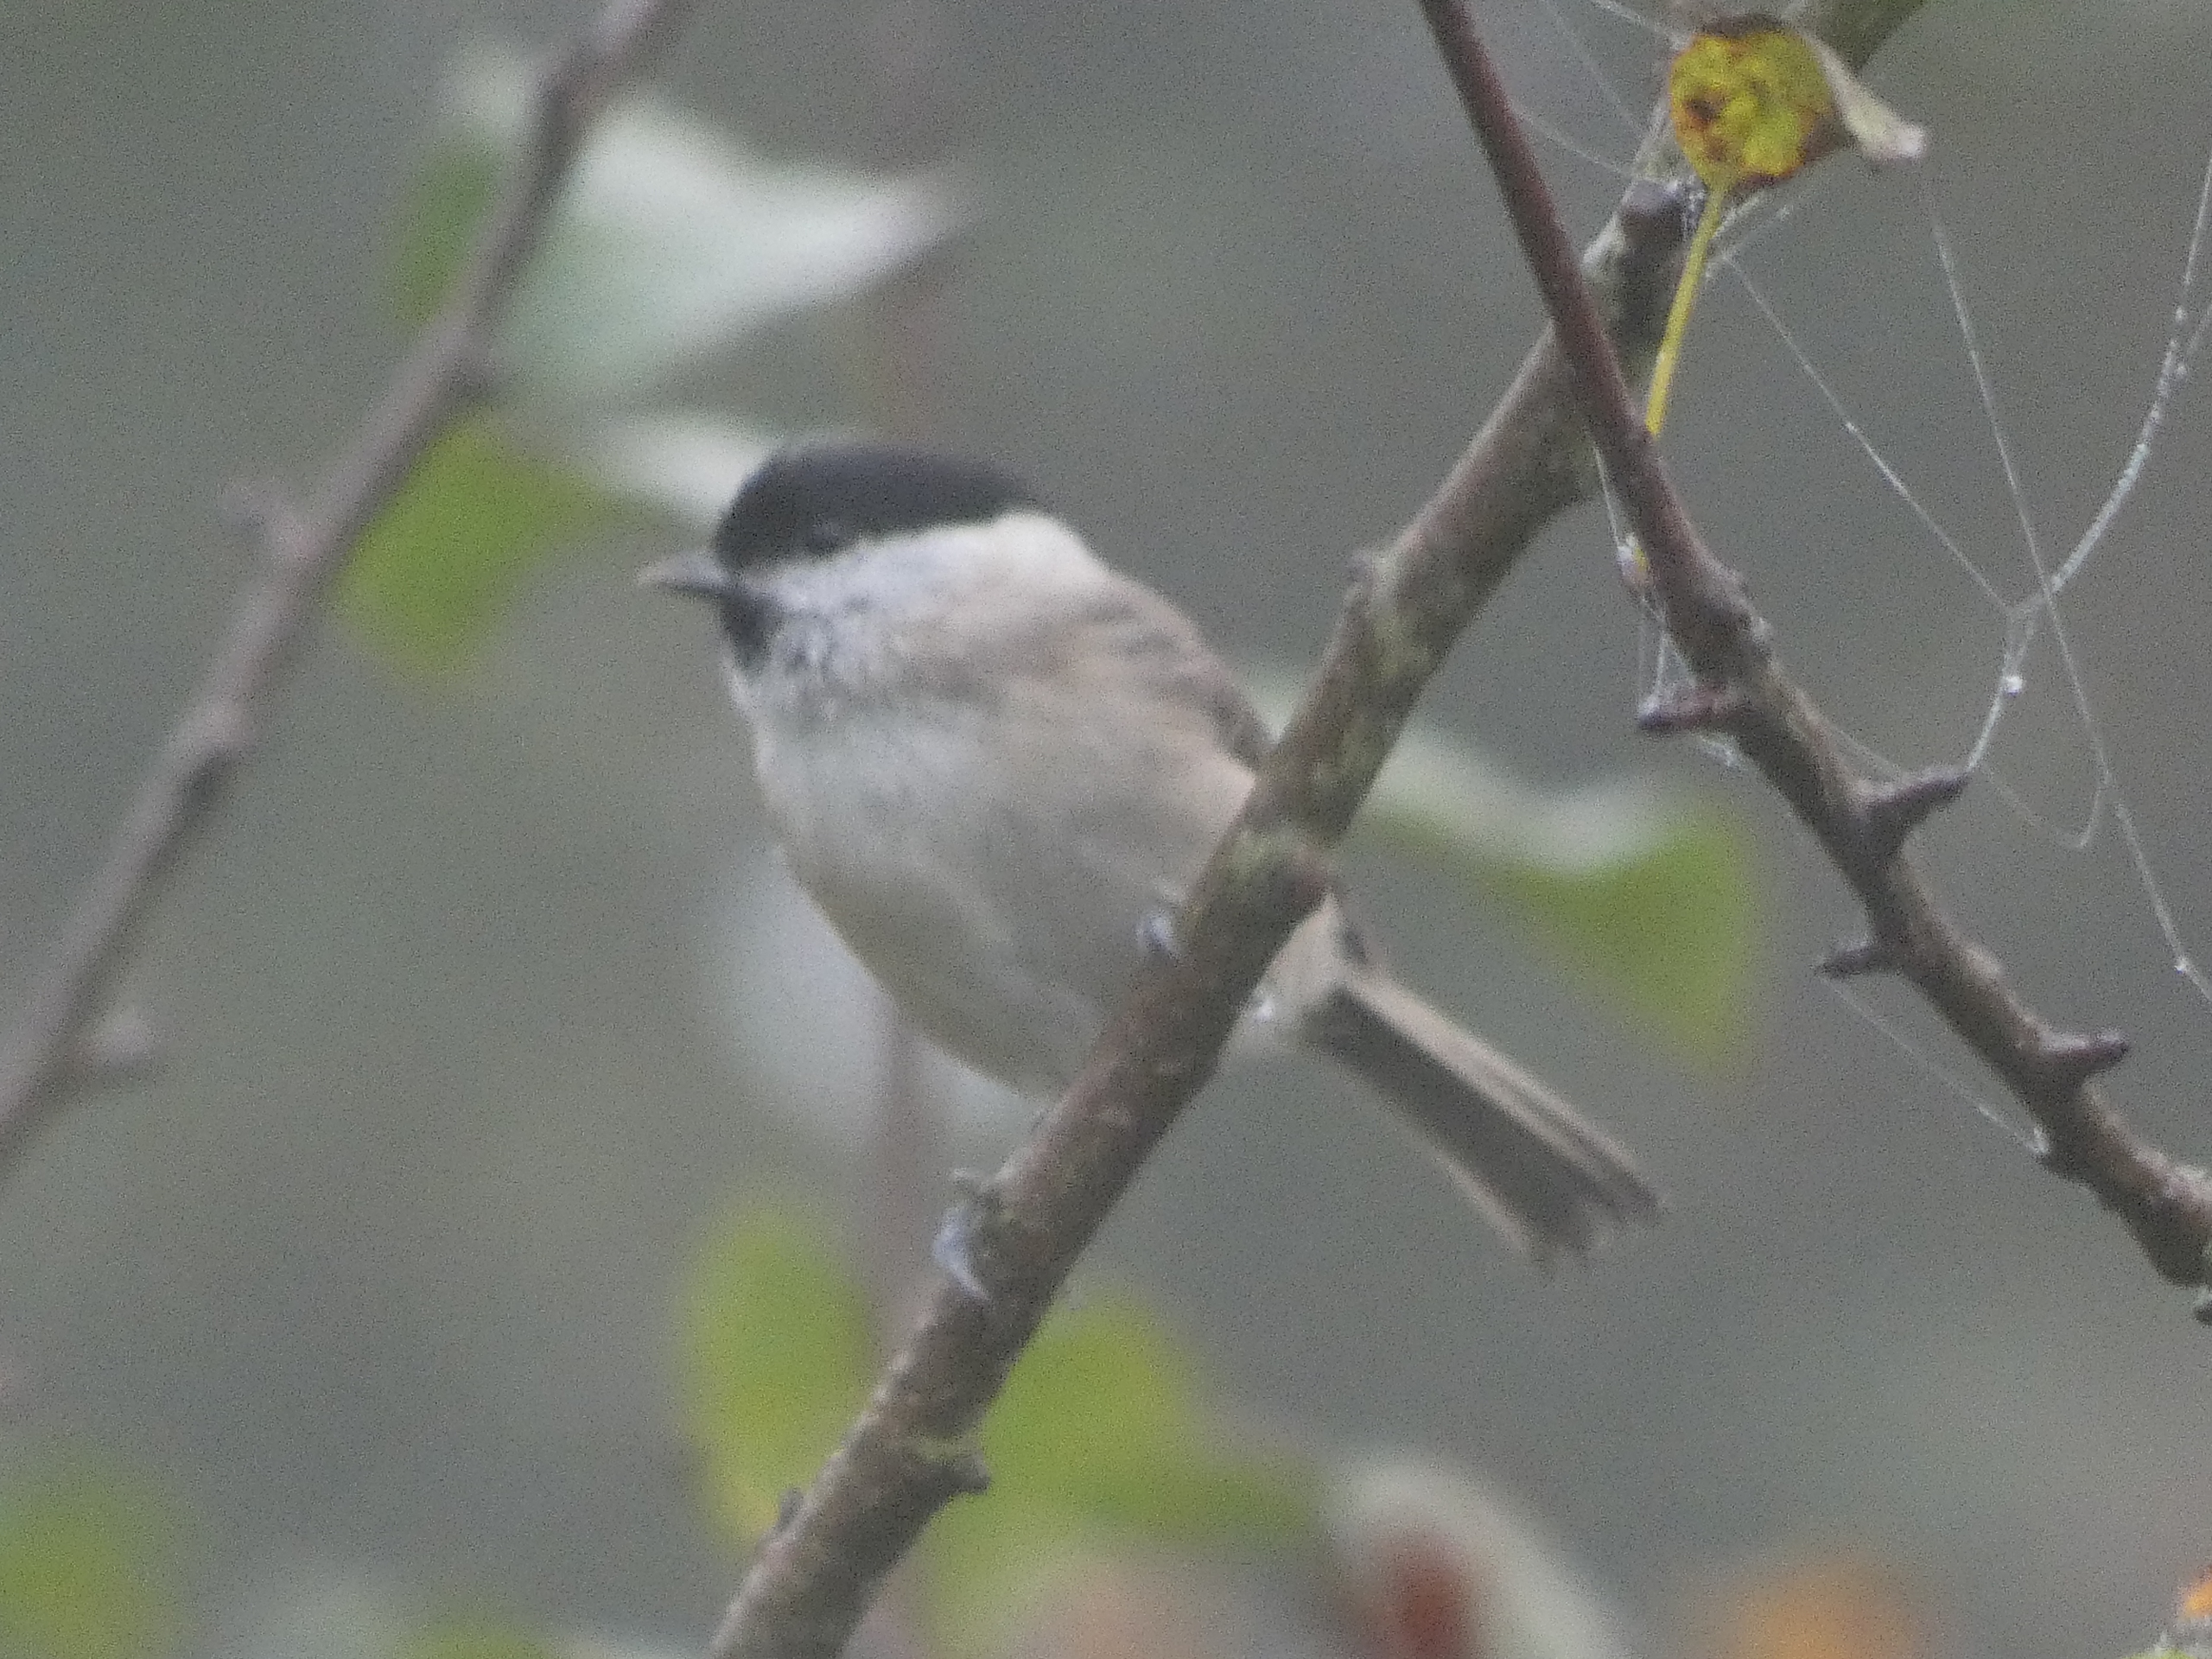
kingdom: Animalia
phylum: Chordata
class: Aves
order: Passeriformes
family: Paridae
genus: Poecile
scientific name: Poecile palustris
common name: Sumpmejse
